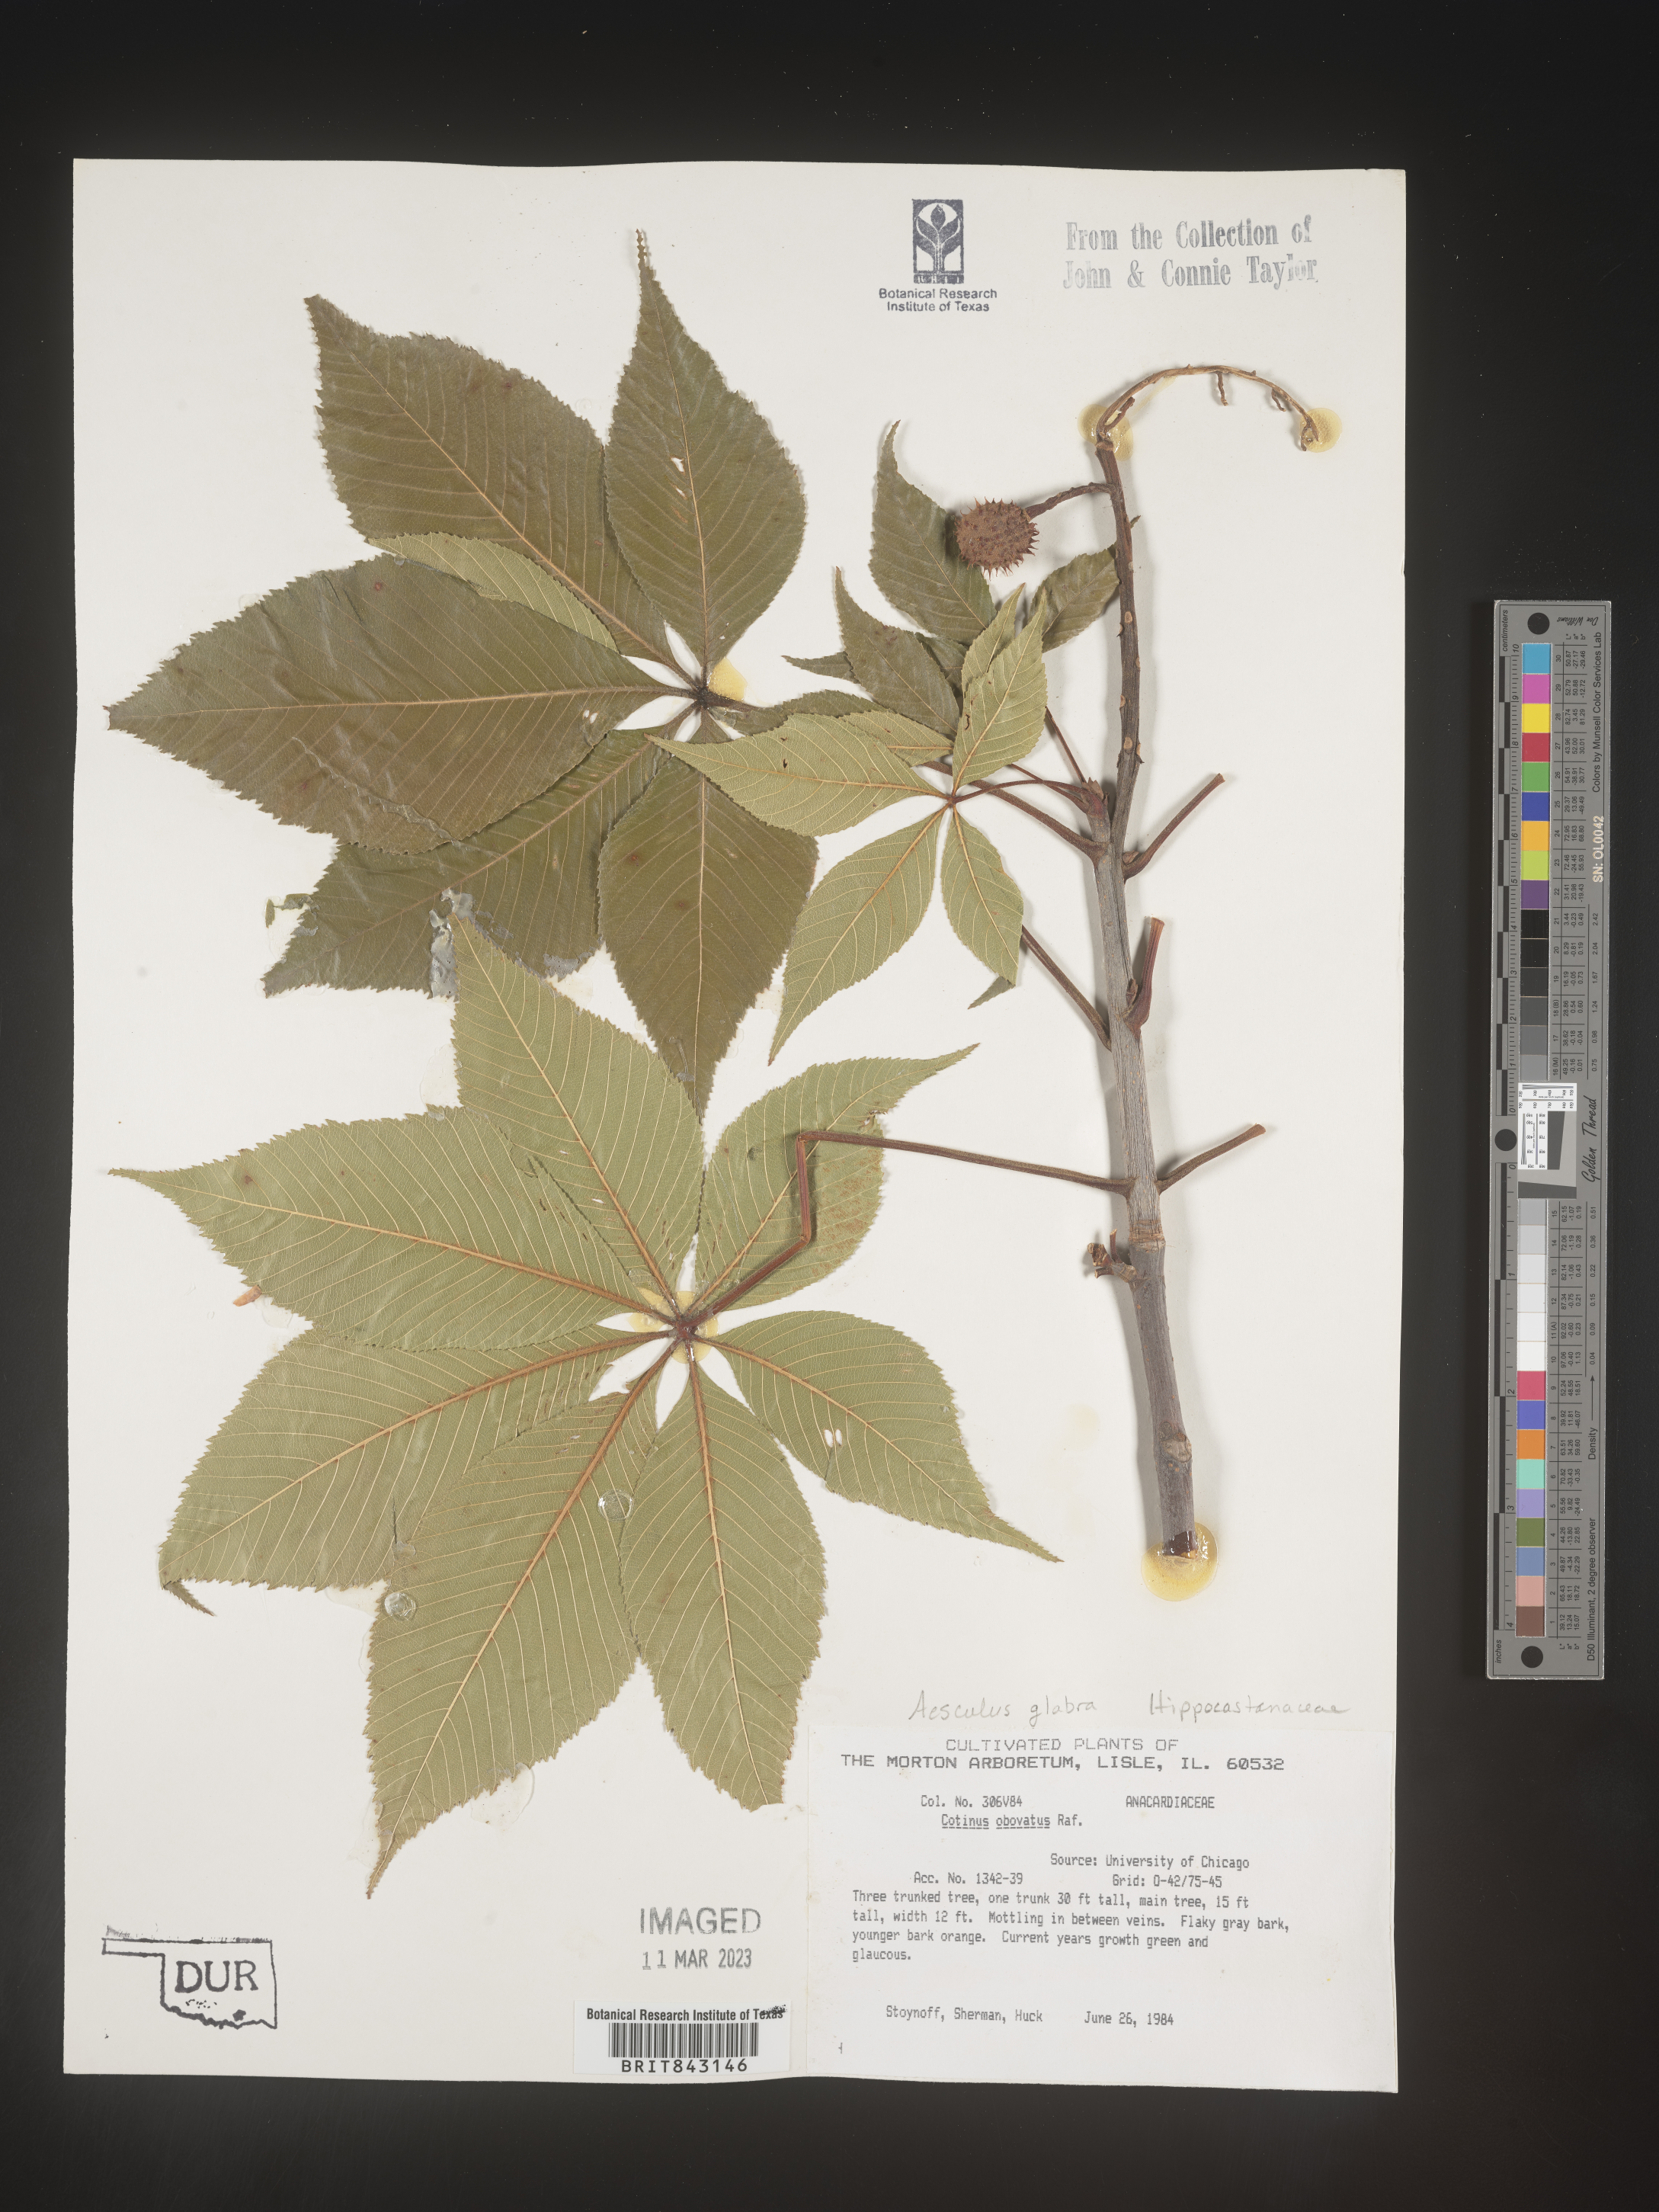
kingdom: Plantae
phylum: Tracheophyta
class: Magnoliopsida
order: Sapindales
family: Sapindaceae
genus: Aesculus
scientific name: Aesculus glabra
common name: Ohio buckeye
